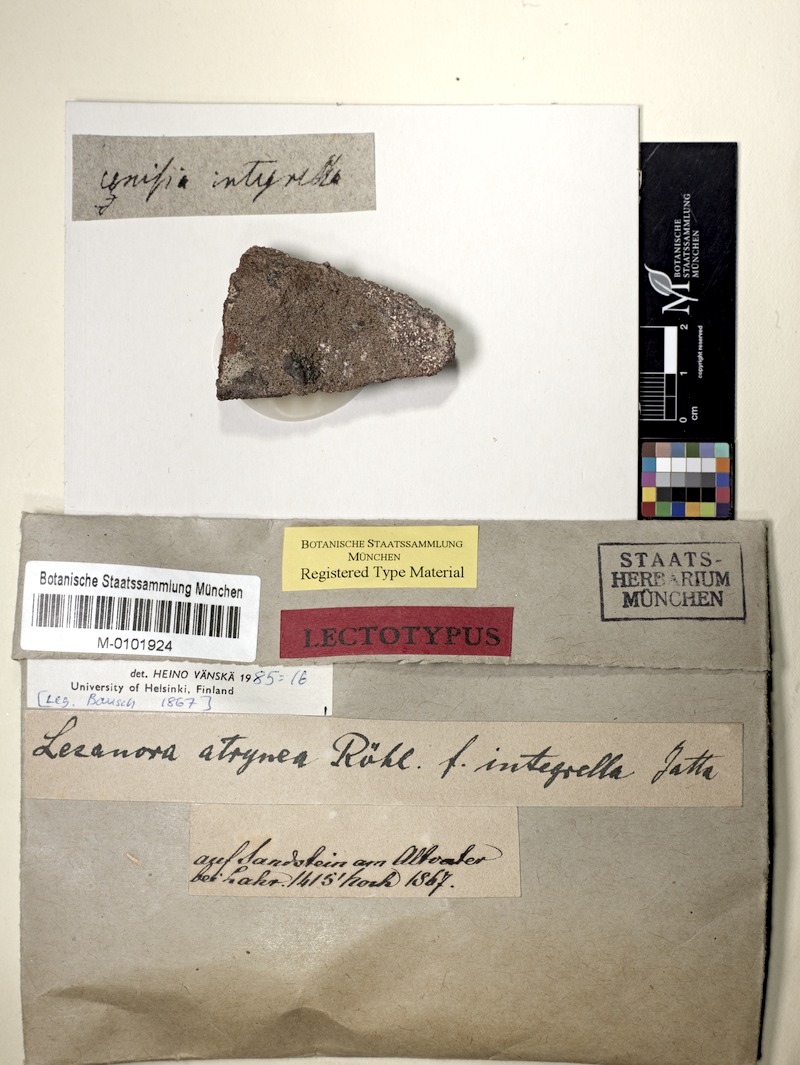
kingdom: Fungi
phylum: Ascomycota
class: Lecanoromycetes
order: Lecanorales
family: Lecanoraceae
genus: Lecanora
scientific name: Lecanora cenisia
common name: Smoky rim lichen
